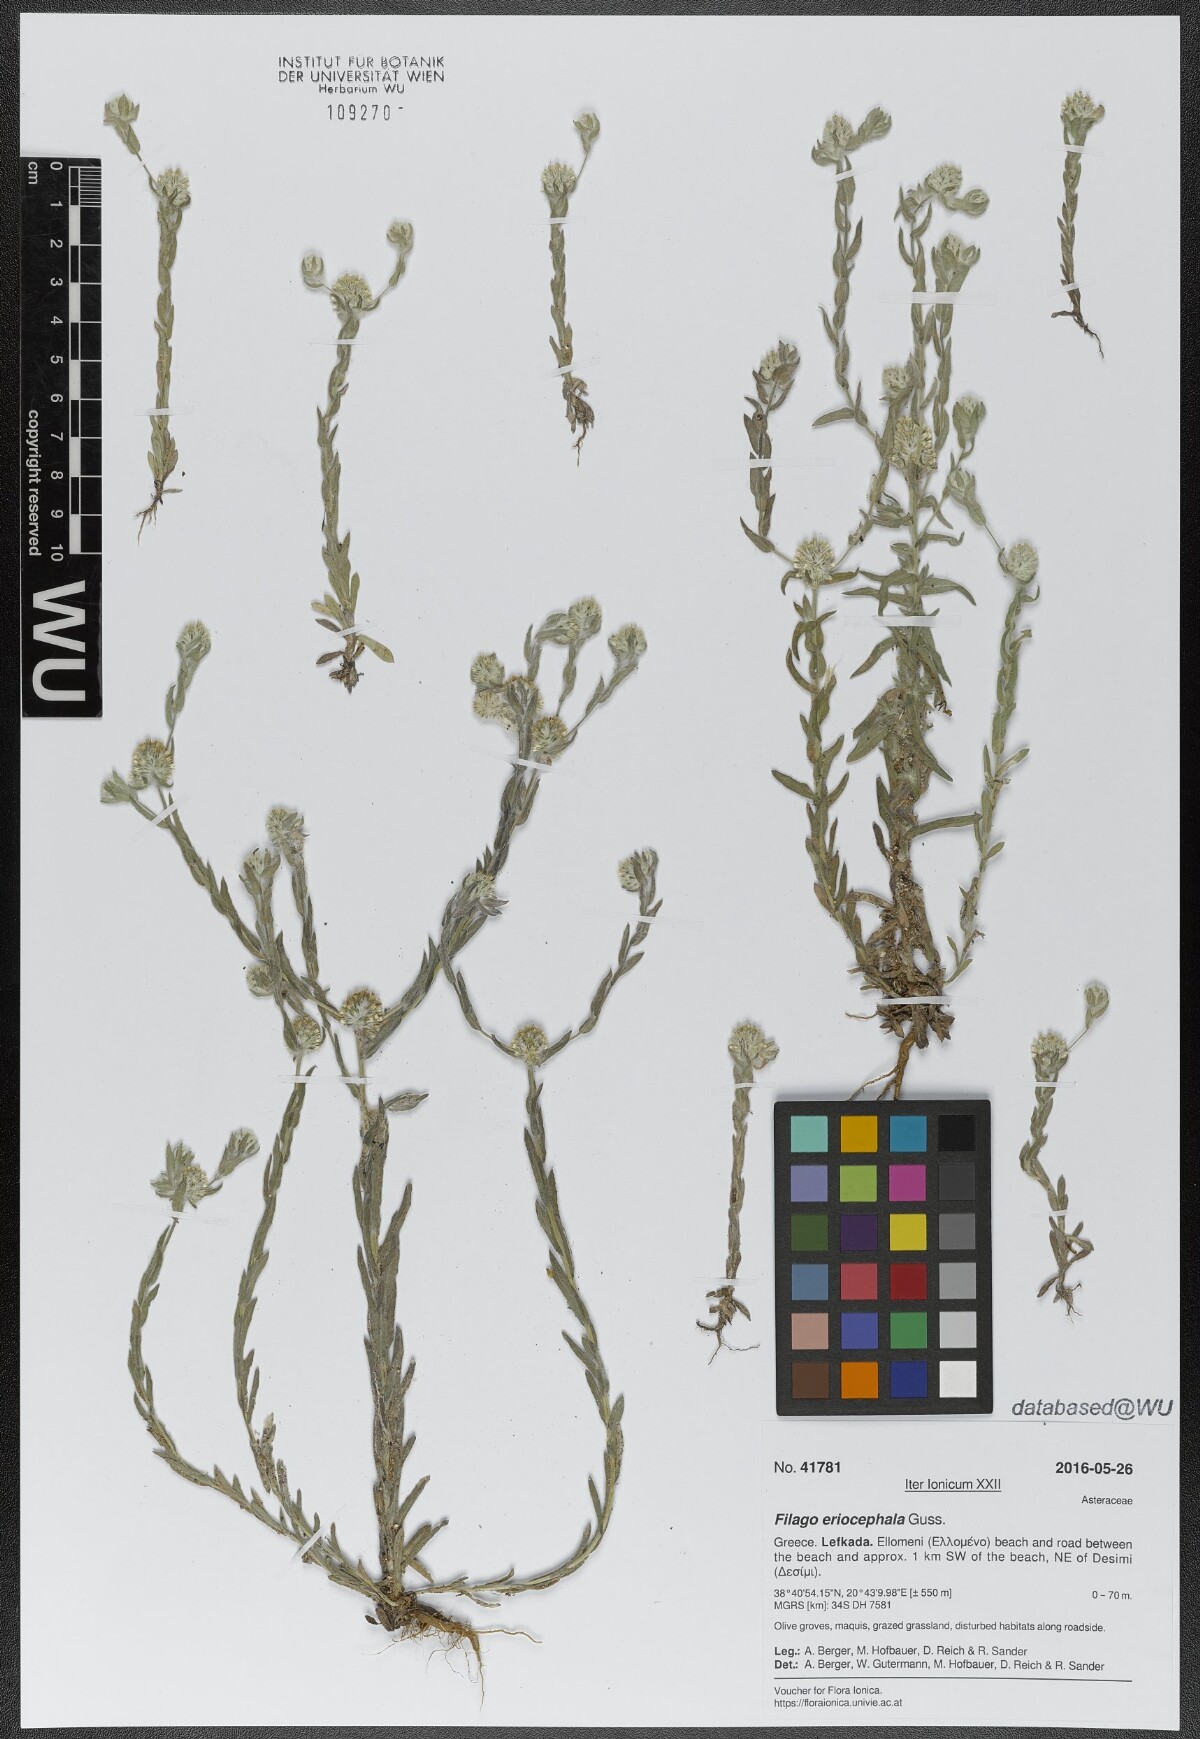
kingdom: Plantae
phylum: Tracheophyta
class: Magnoliopsida
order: Asterales
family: Asteraceae
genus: Filago
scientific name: Filago eriocephala
